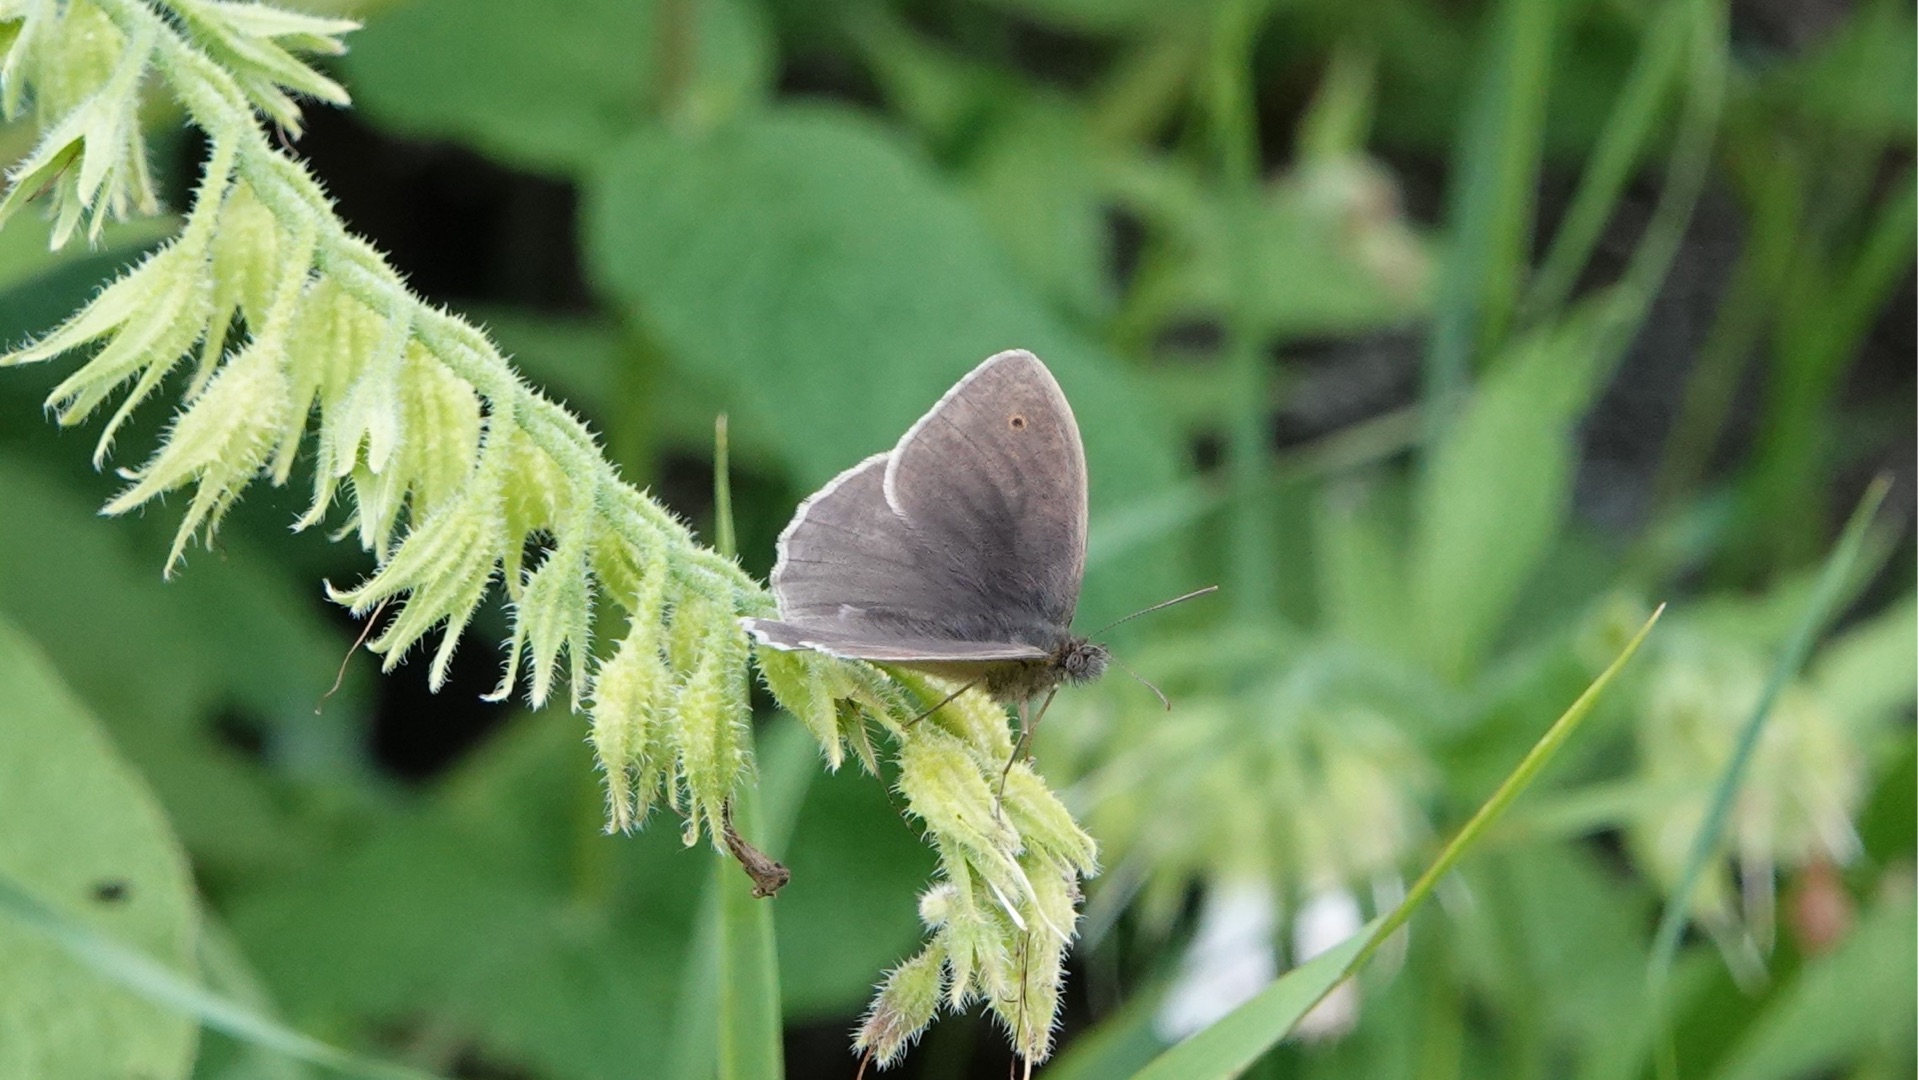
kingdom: Animalia
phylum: Arthropoda
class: Insecta
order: Lepidoptera
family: Nymphalidae
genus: Maniola
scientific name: Maniola jurtina
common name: Græsrandøje
